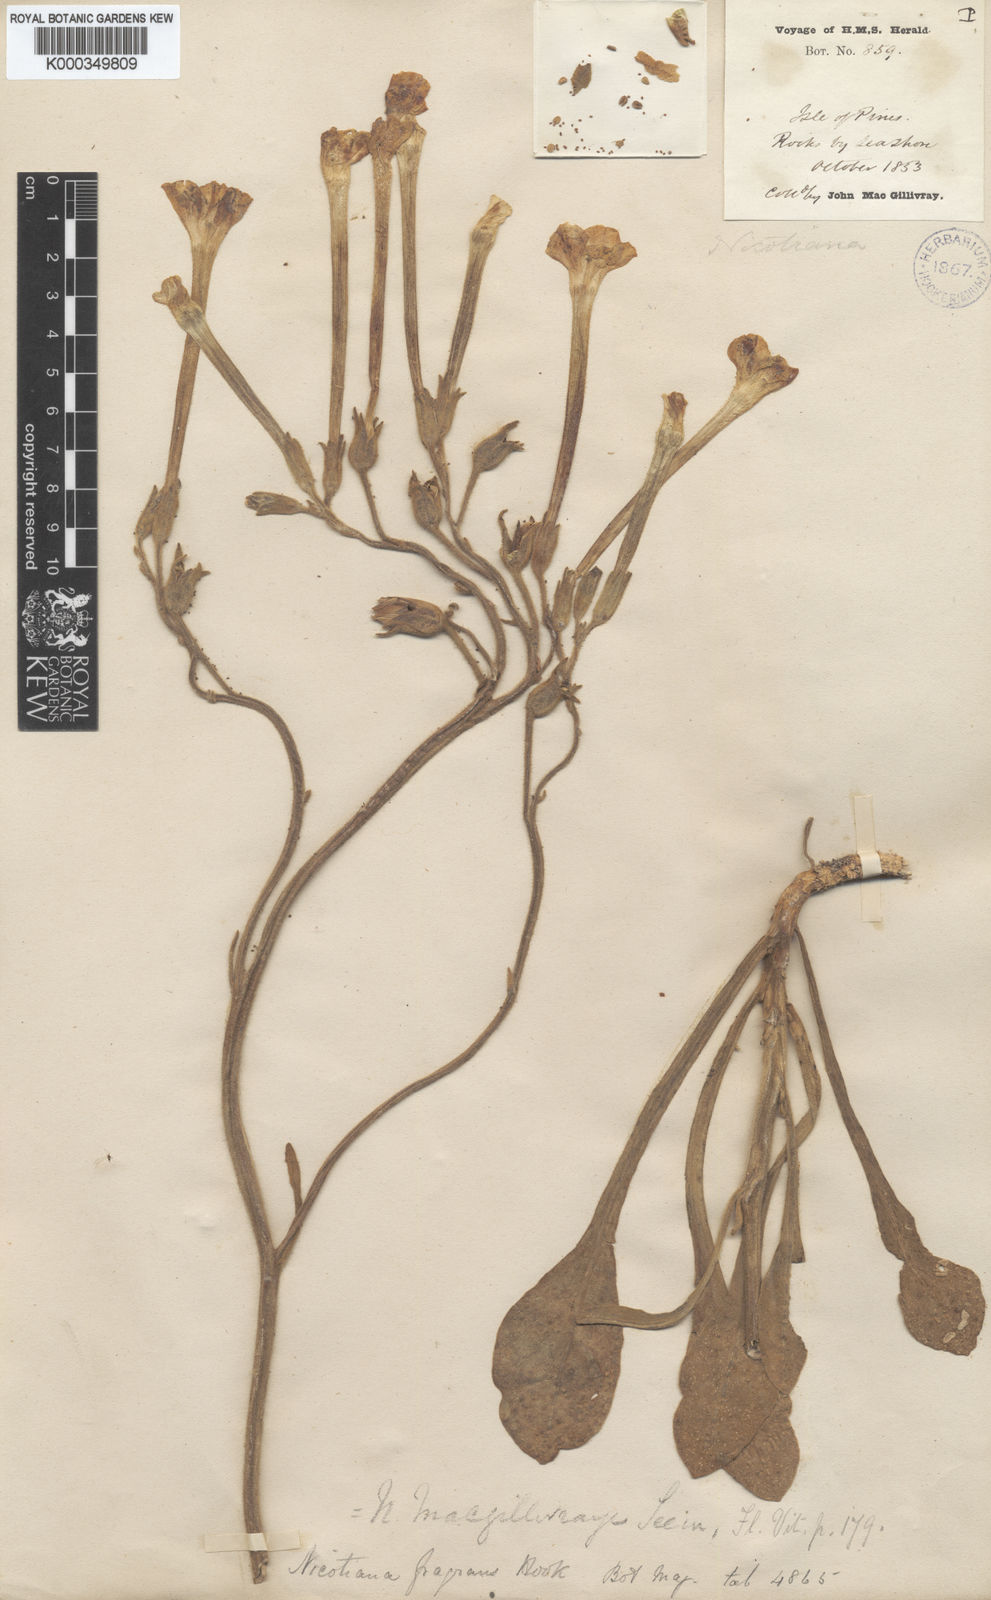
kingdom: Plantae
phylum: Tracheophyta
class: Magnoliopsida
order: Solanales
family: Solanaceae
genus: Nicotiana
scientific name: Nicotiana fragrans
